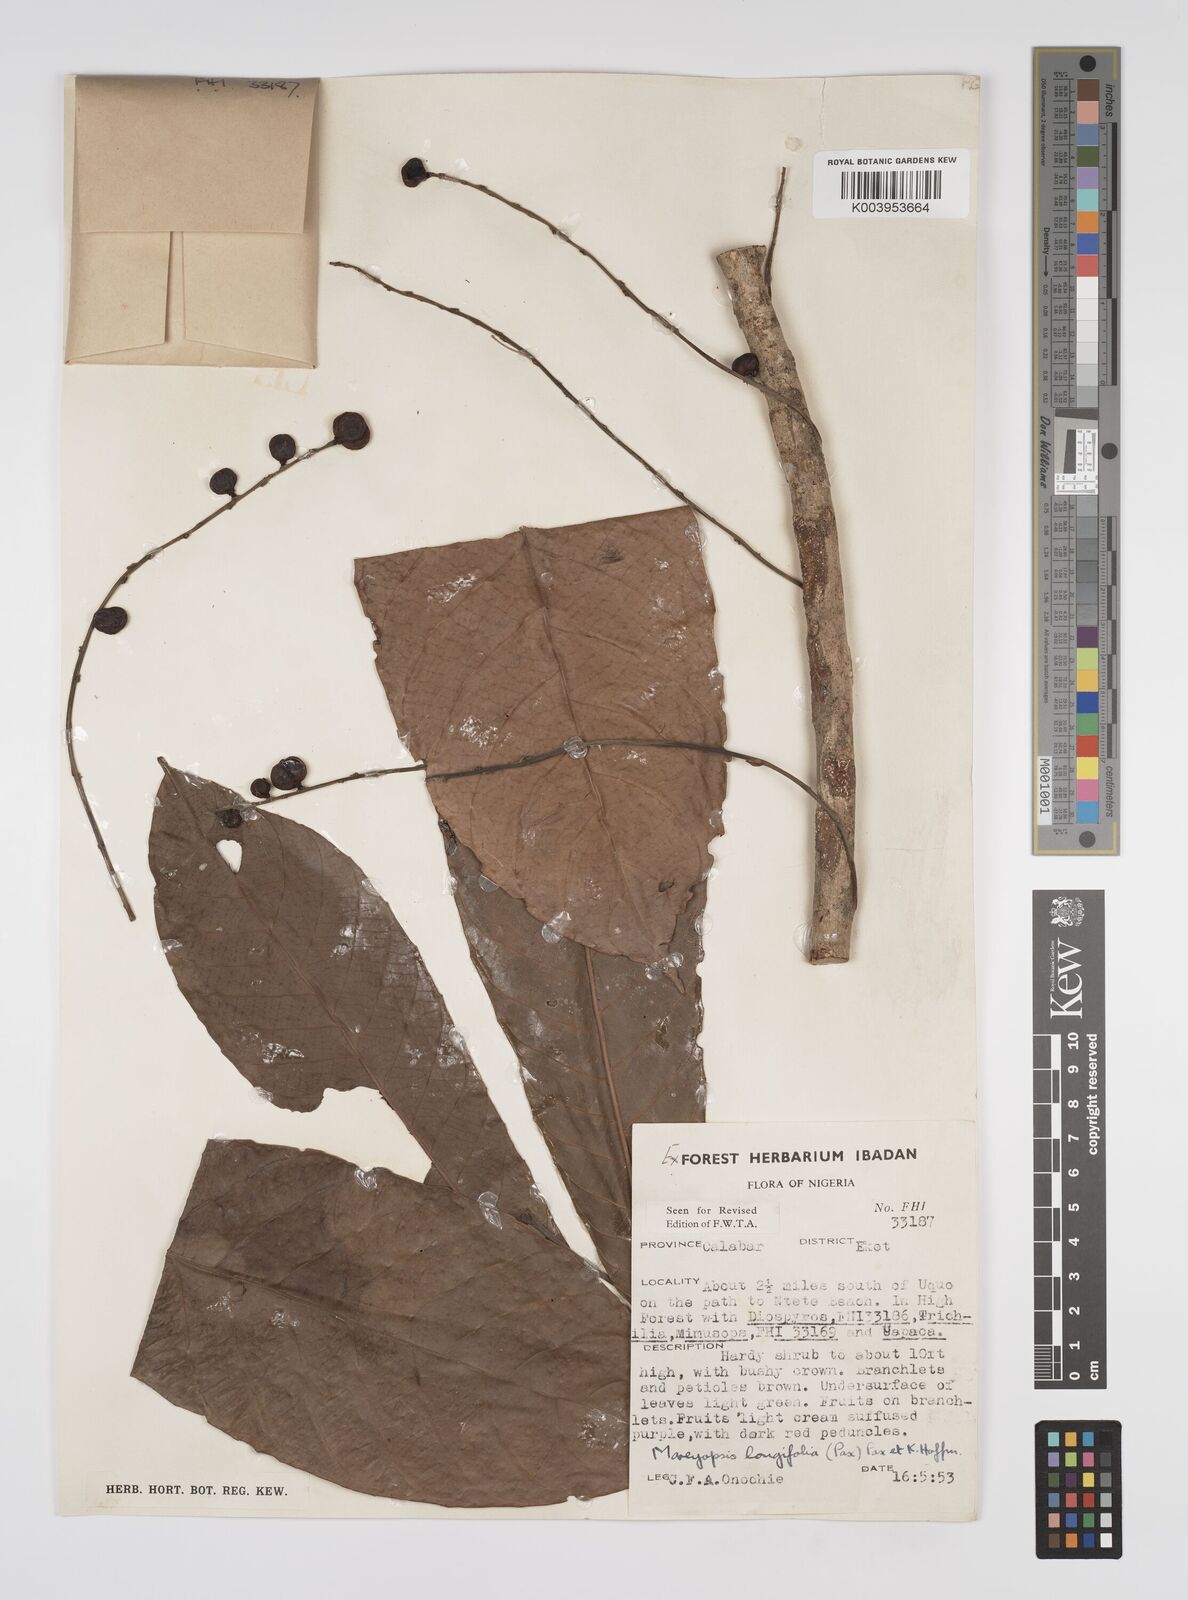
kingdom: Plantae
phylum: Tracheophyta
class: Magnoliopsida
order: Malpighiales
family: Euphorbiaceae
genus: Mareyopsis
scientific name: Mareyopsis longifolia
